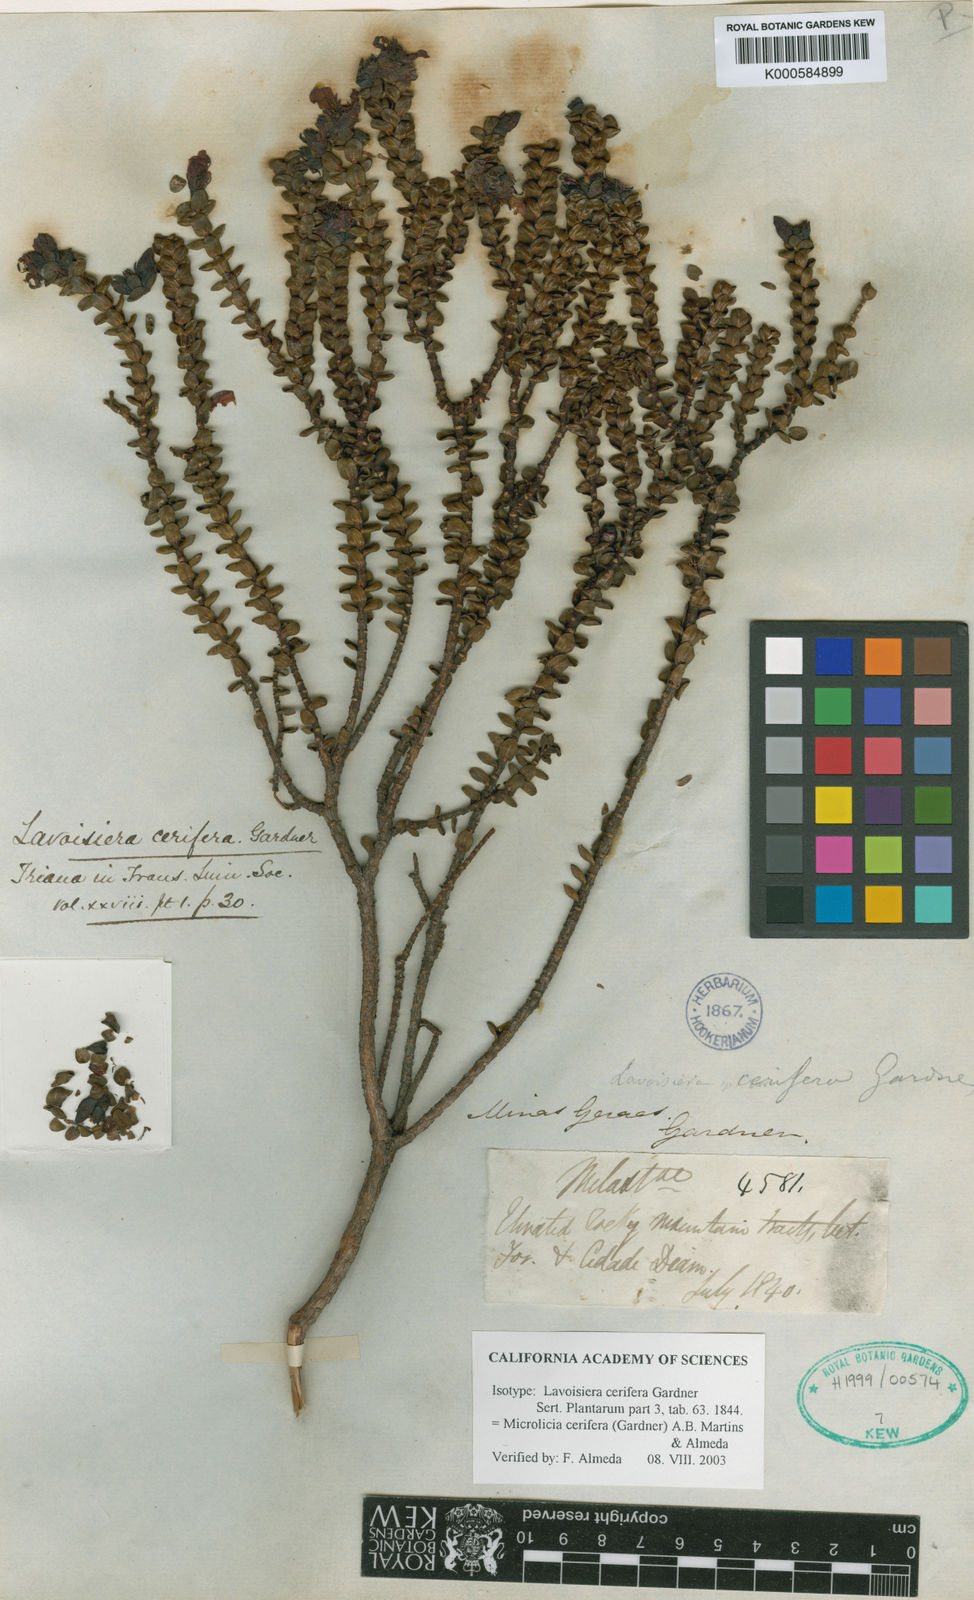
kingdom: Plantae
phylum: Tracheophyta
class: Magnoliopsida
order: Myrtales
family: Melastomataceae
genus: Microlicia
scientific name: Microlicia cerifera
